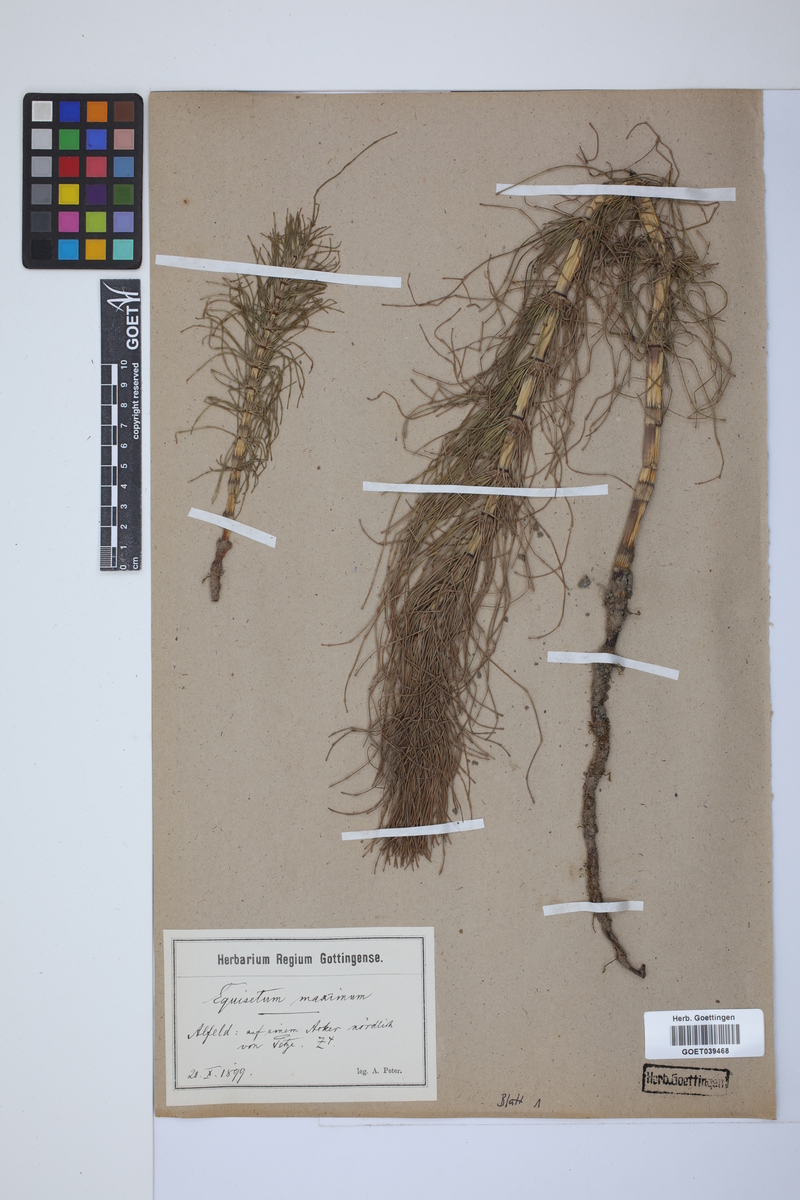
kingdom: Plantae
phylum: Tracheophyta
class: Polypodiopsida
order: Equisetales
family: Equisetaceae
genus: Equisetum
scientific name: Equisetum telmateia
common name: Great horsetail
